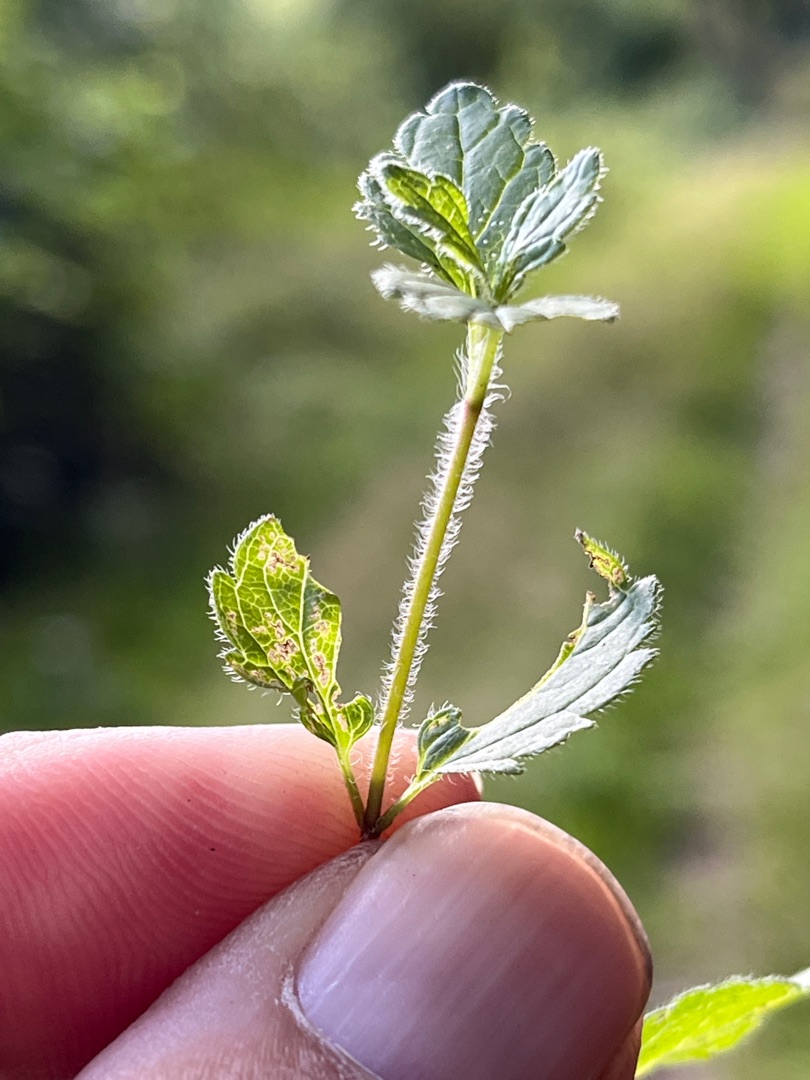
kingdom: Plantae
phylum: Tracheophyta
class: Magnoliopsida
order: Lamiales
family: Plantaginaceae
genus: Veronica
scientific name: Veronica chamaedrys
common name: Tveskægget ærenpris
